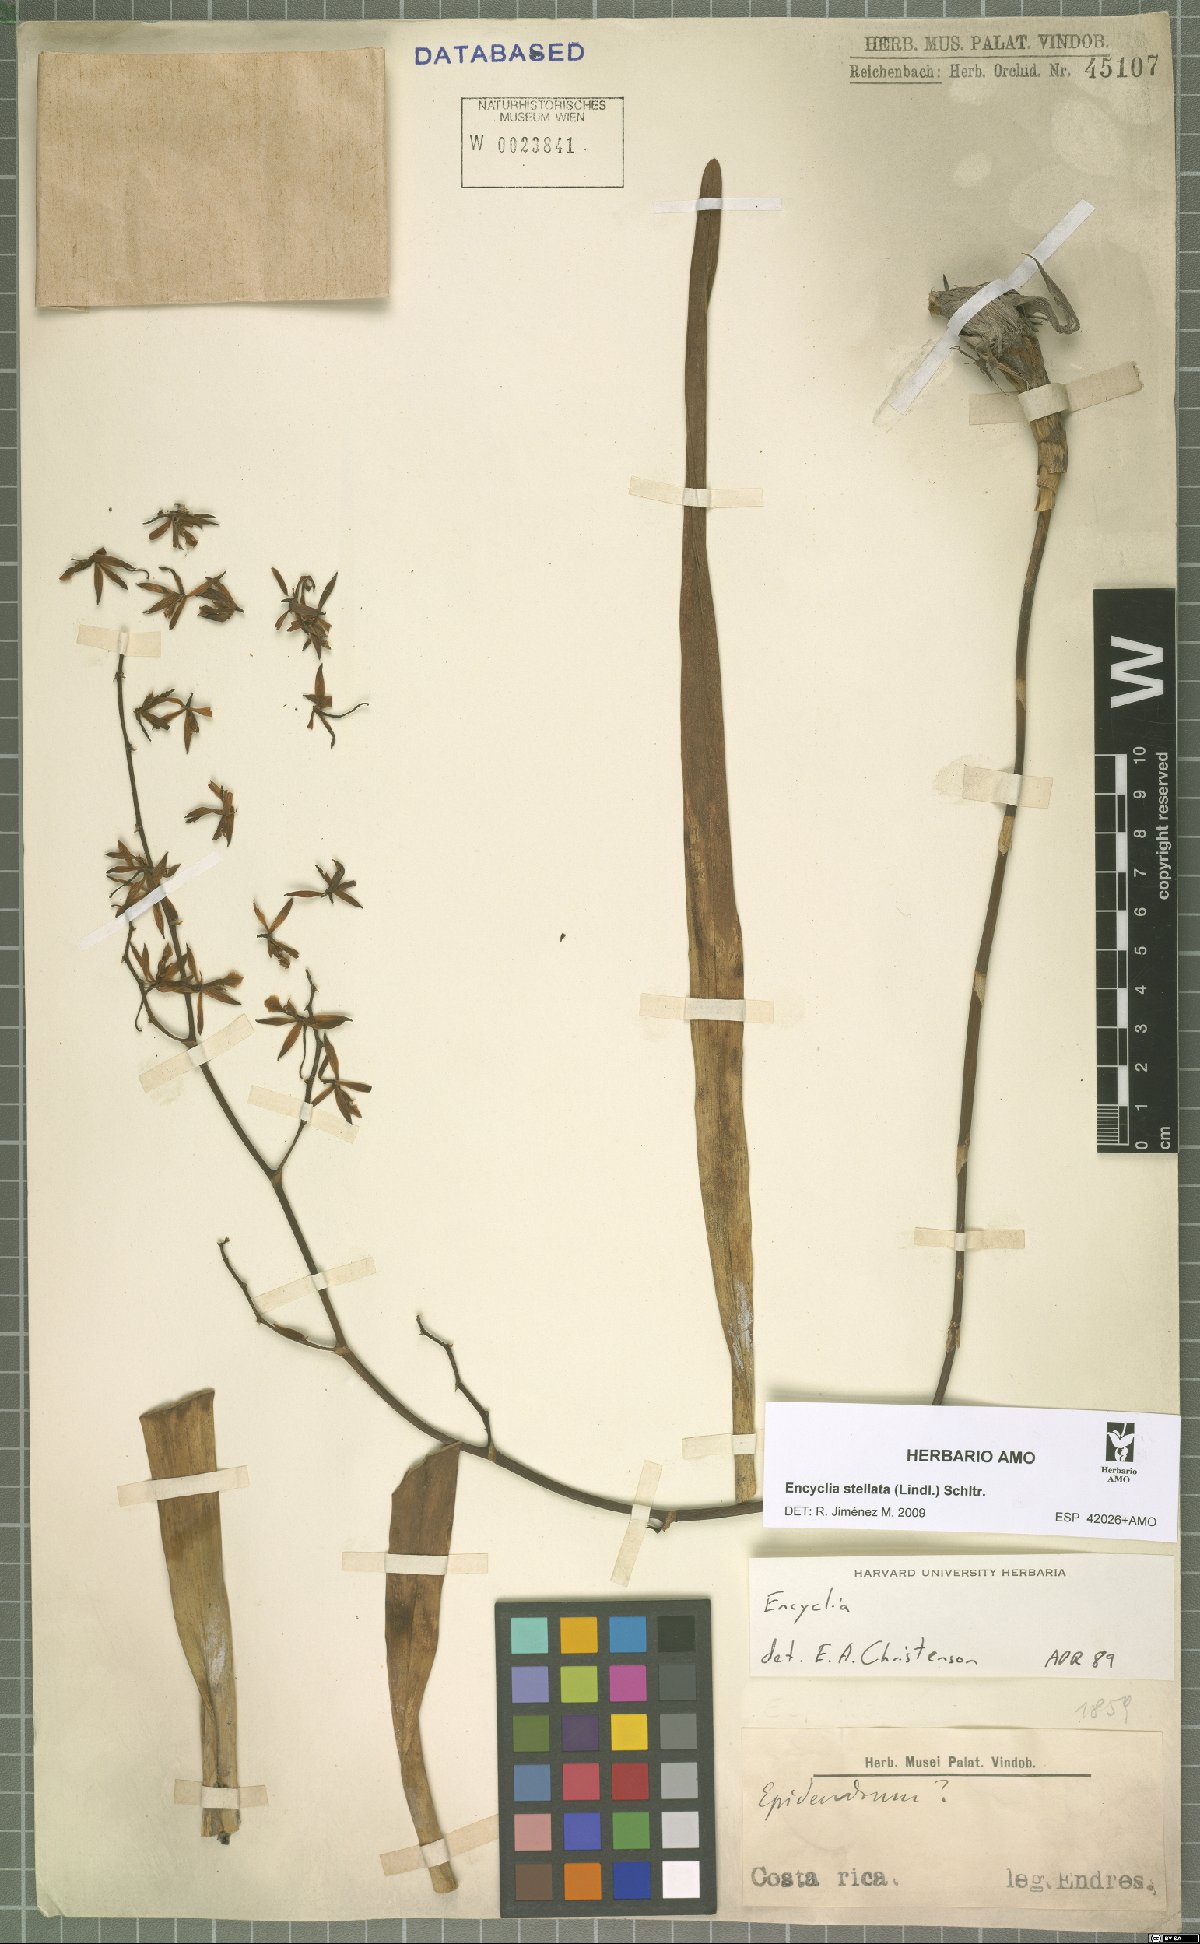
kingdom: Plantae
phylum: Tracheophyta
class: Liliopsida
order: Asparagales
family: Orchidaceae
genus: Encyclia
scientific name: Encyclia stellata
